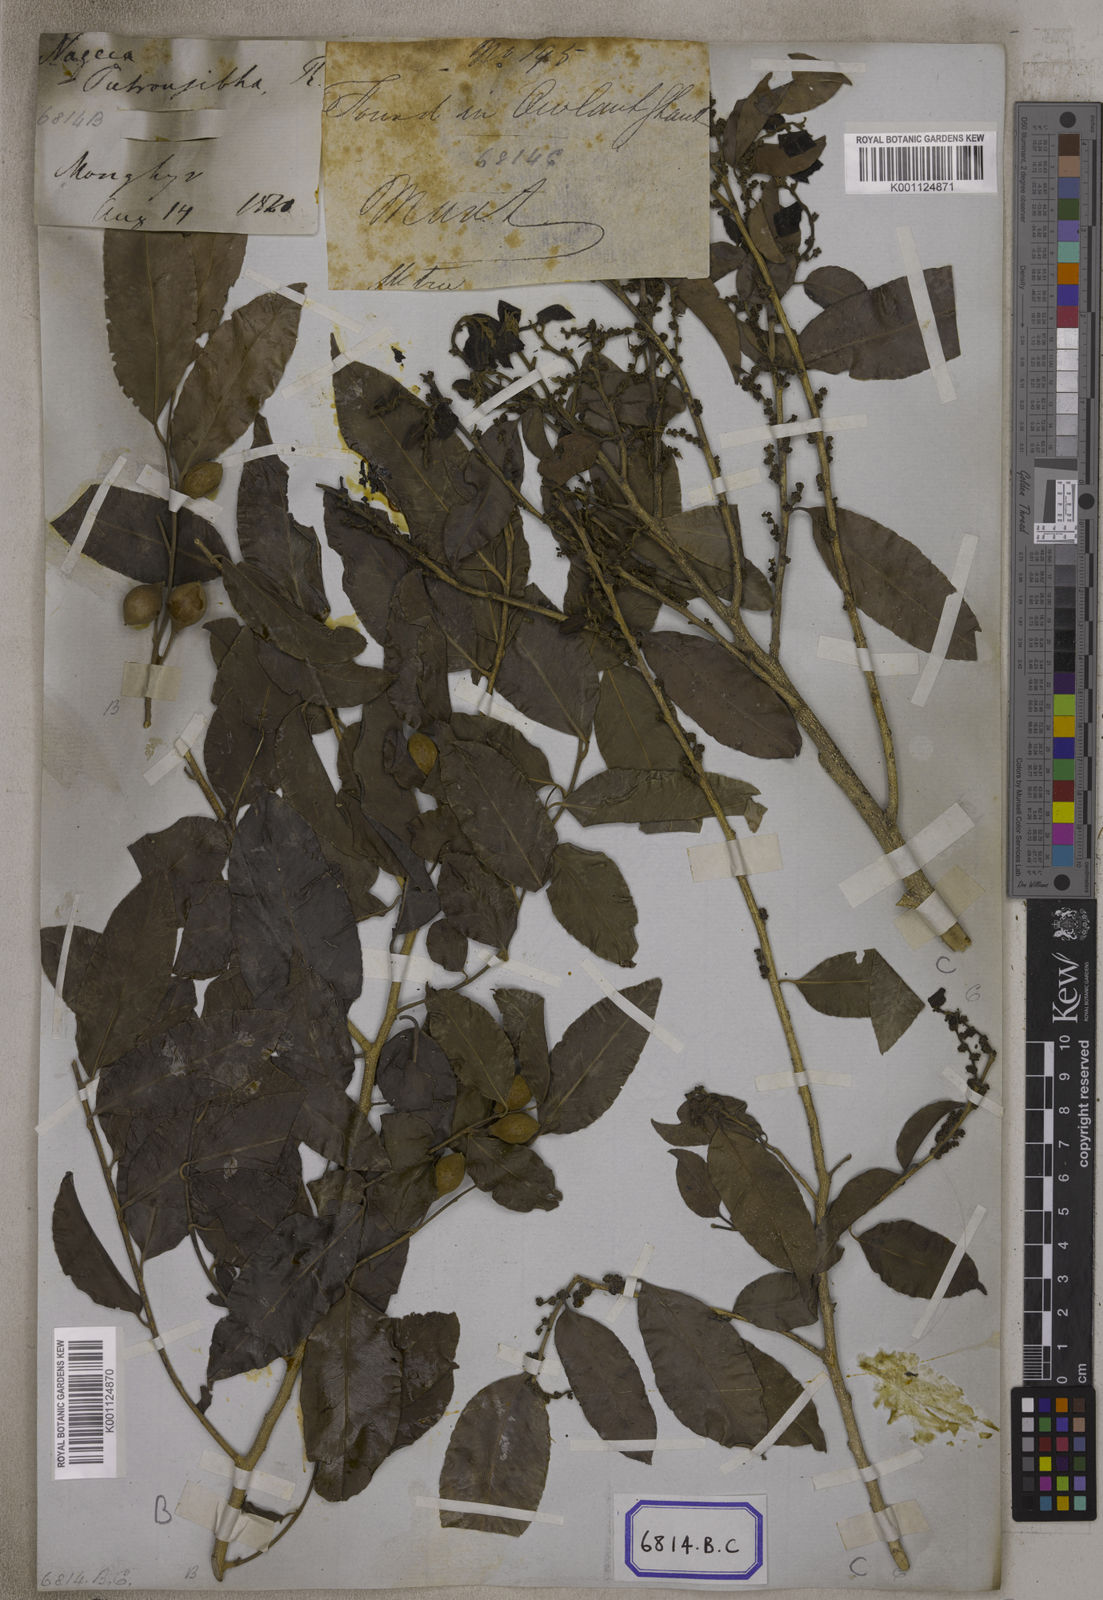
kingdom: Plantae
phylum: Tracheophyta
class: Magnoliopsida
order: Malpighiales
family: Putranjivaceae
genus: Putranjiva
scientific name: Putranjiva roxburghii
